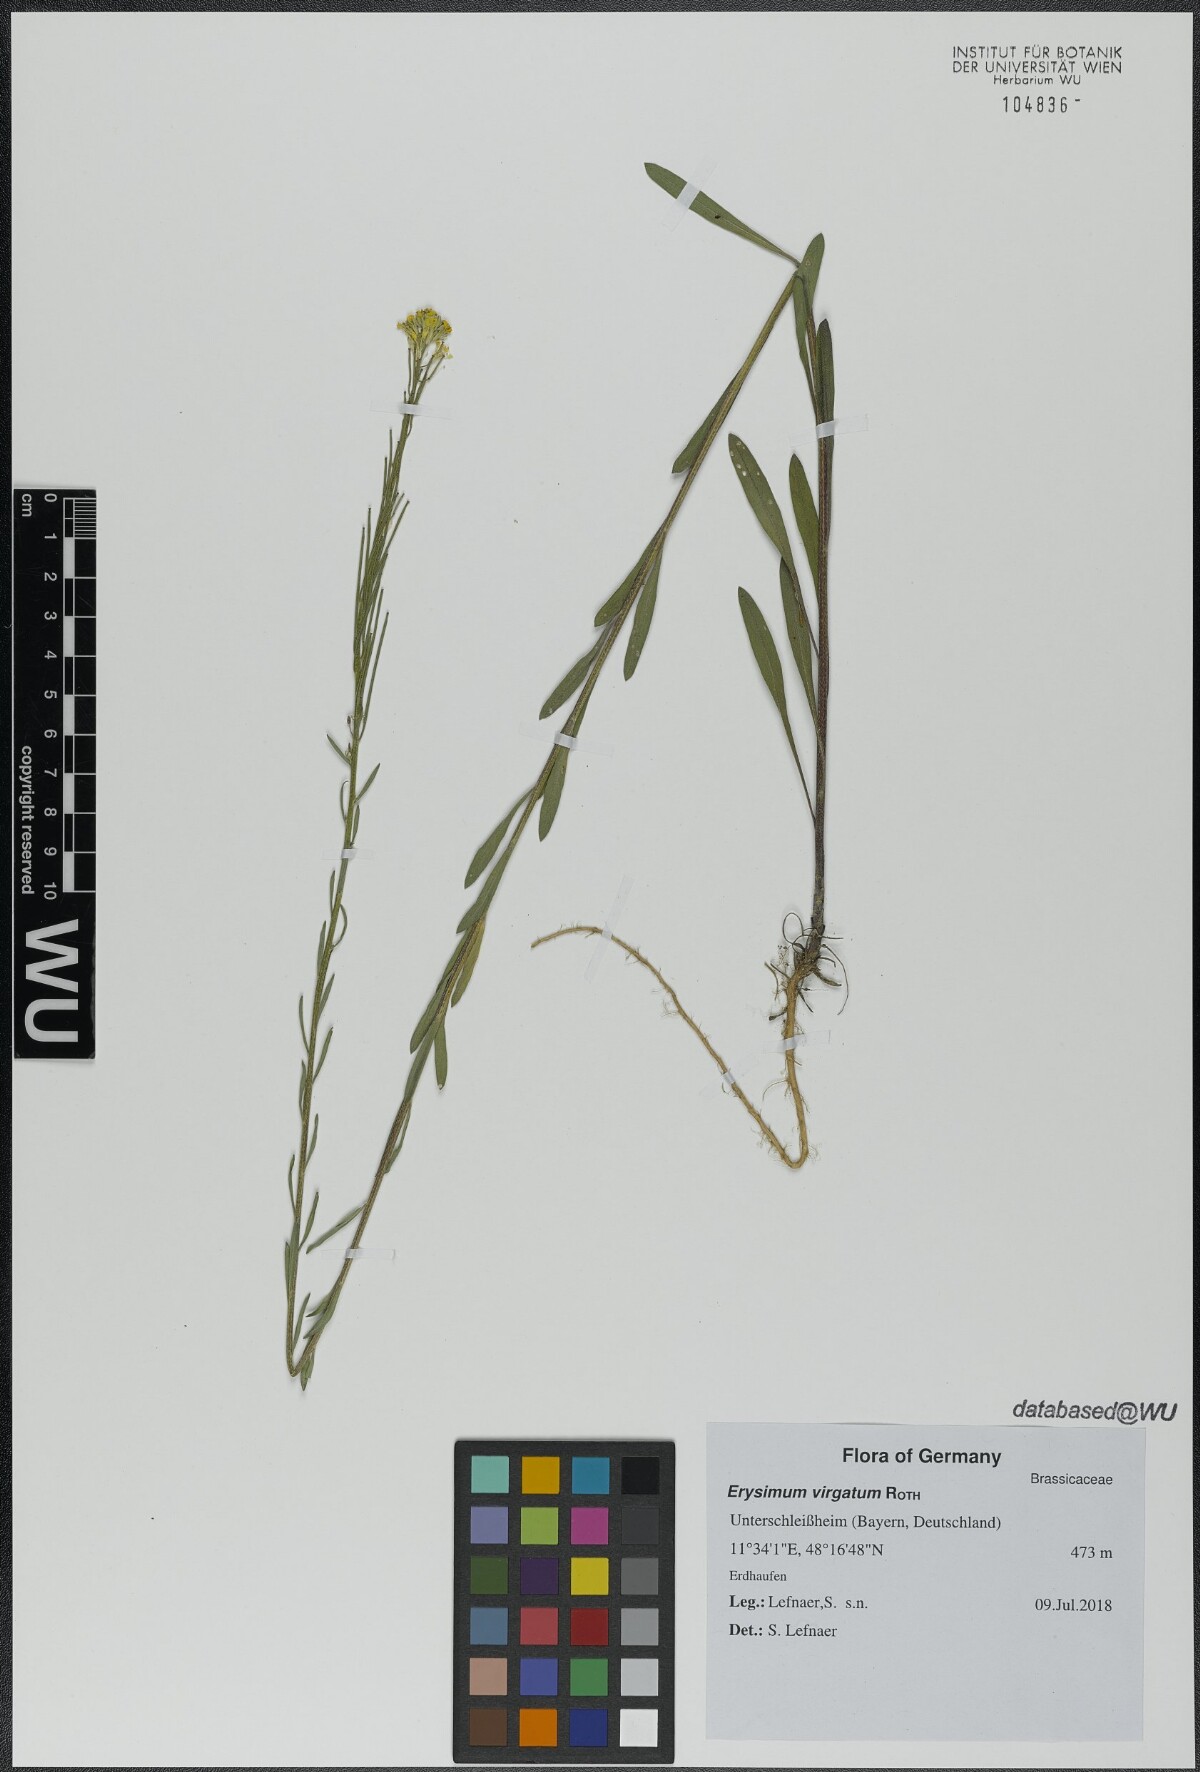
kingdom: Plantae
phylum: Tracheophyta
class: Magnoliopsida
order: Brassicales
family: Brassicaceae
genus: Erysimum
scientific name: Erysimum virgatum
